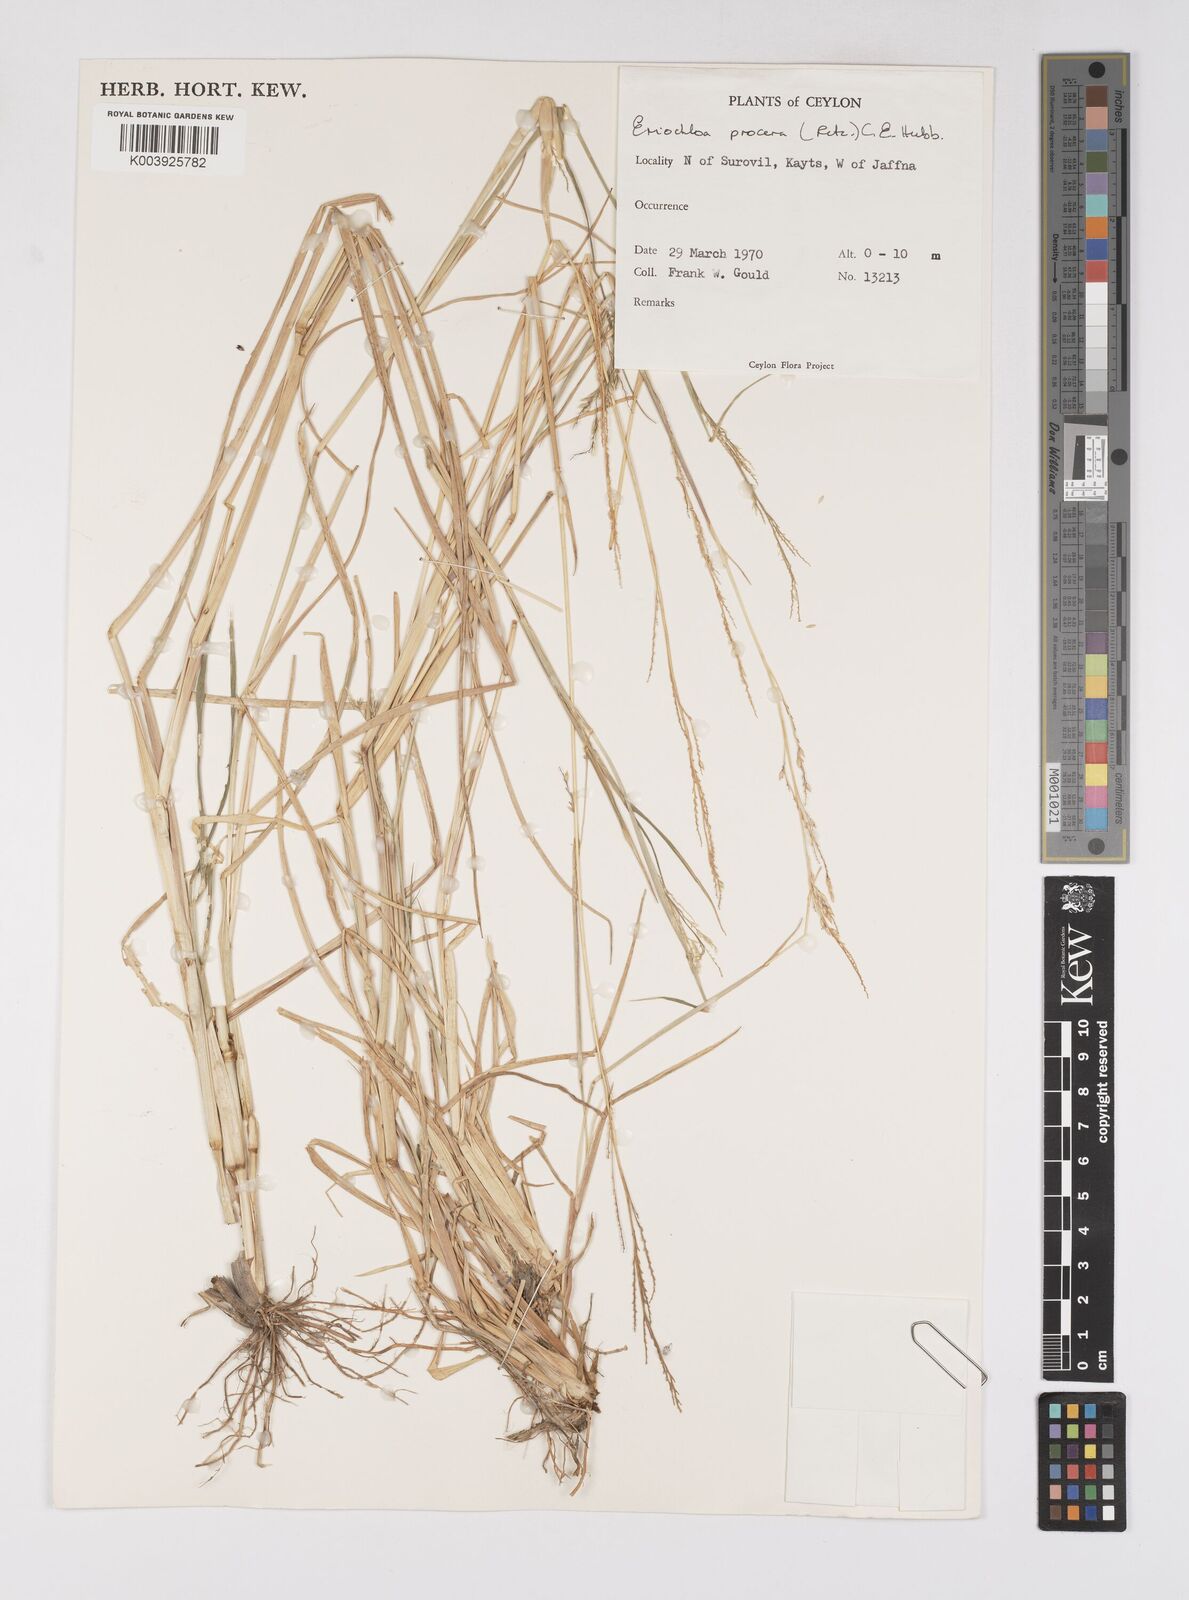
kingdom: Plantae
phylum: Tracheophyta
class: Liliopsida
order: Poales
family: Poaceae
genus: Eriochloa
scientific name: Eriochloa procera
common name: Spring grass
